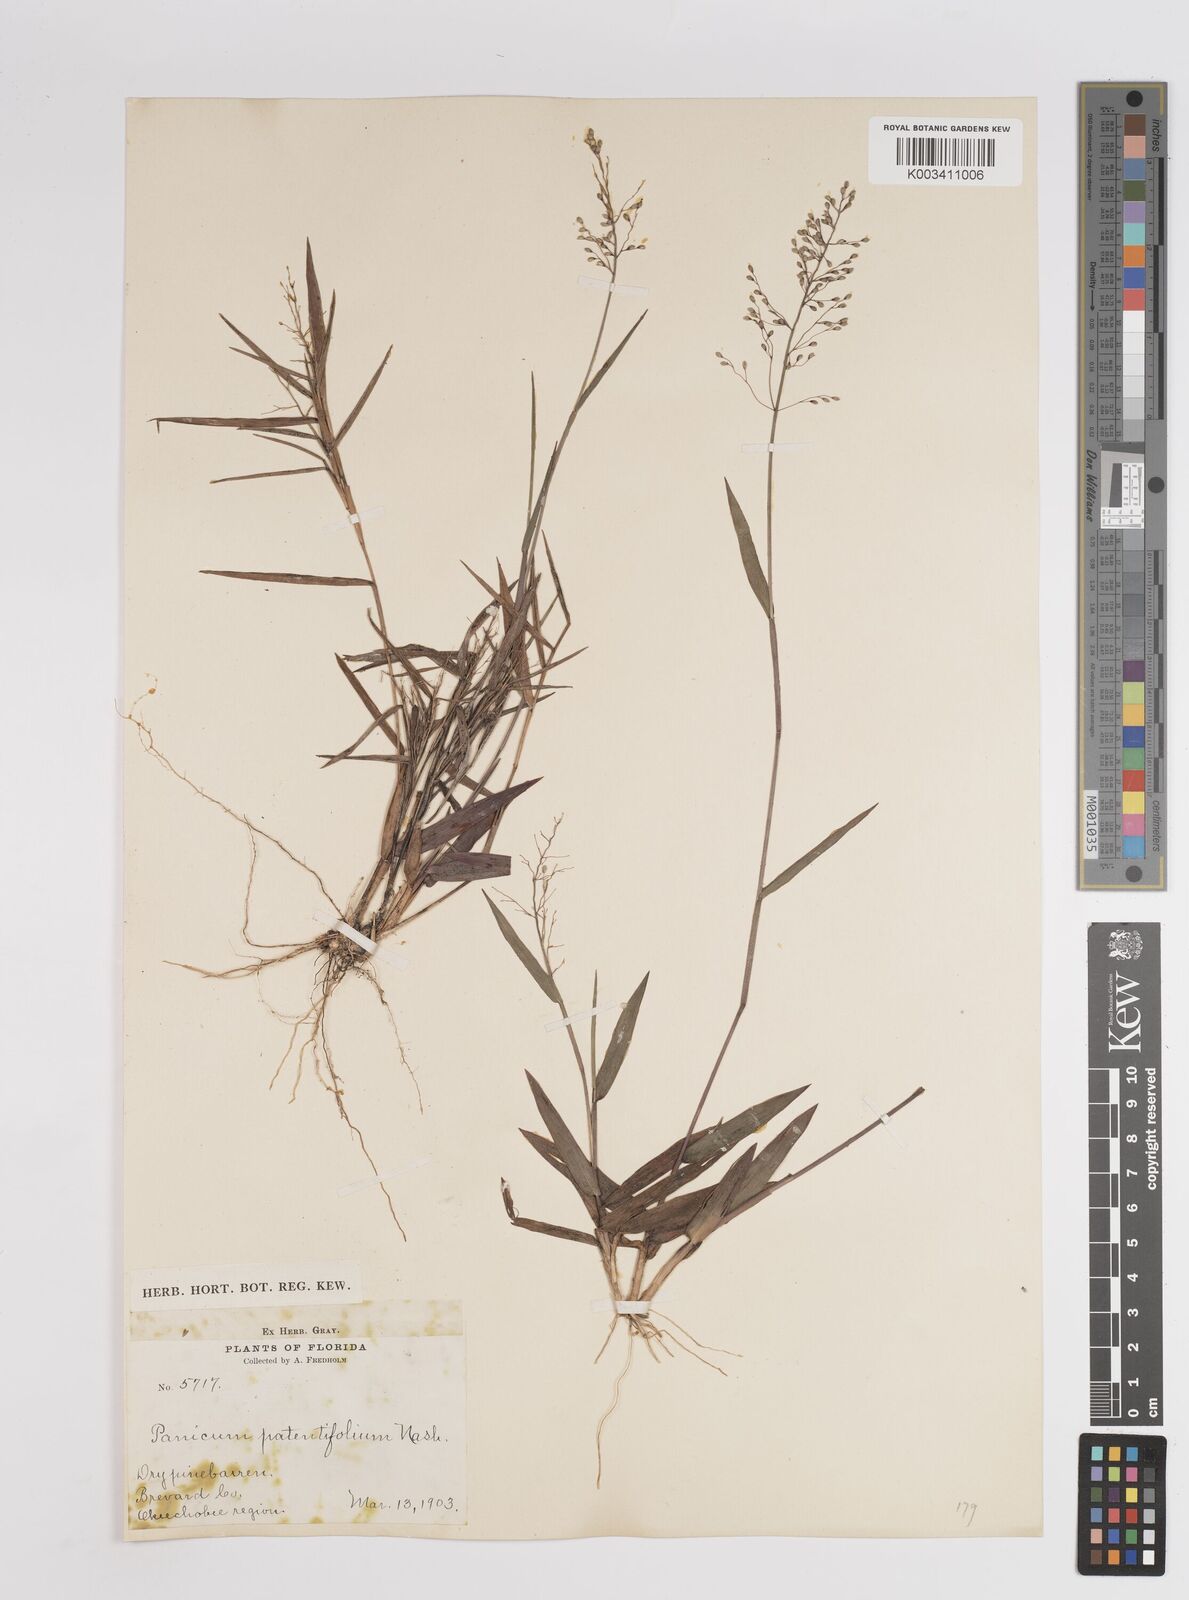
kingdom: Plantae
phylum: Tracheophyta
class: Liliopsida
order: Poales
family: Poaceae
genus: Dichanthelium
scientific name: Dichanthelium patentifolium
